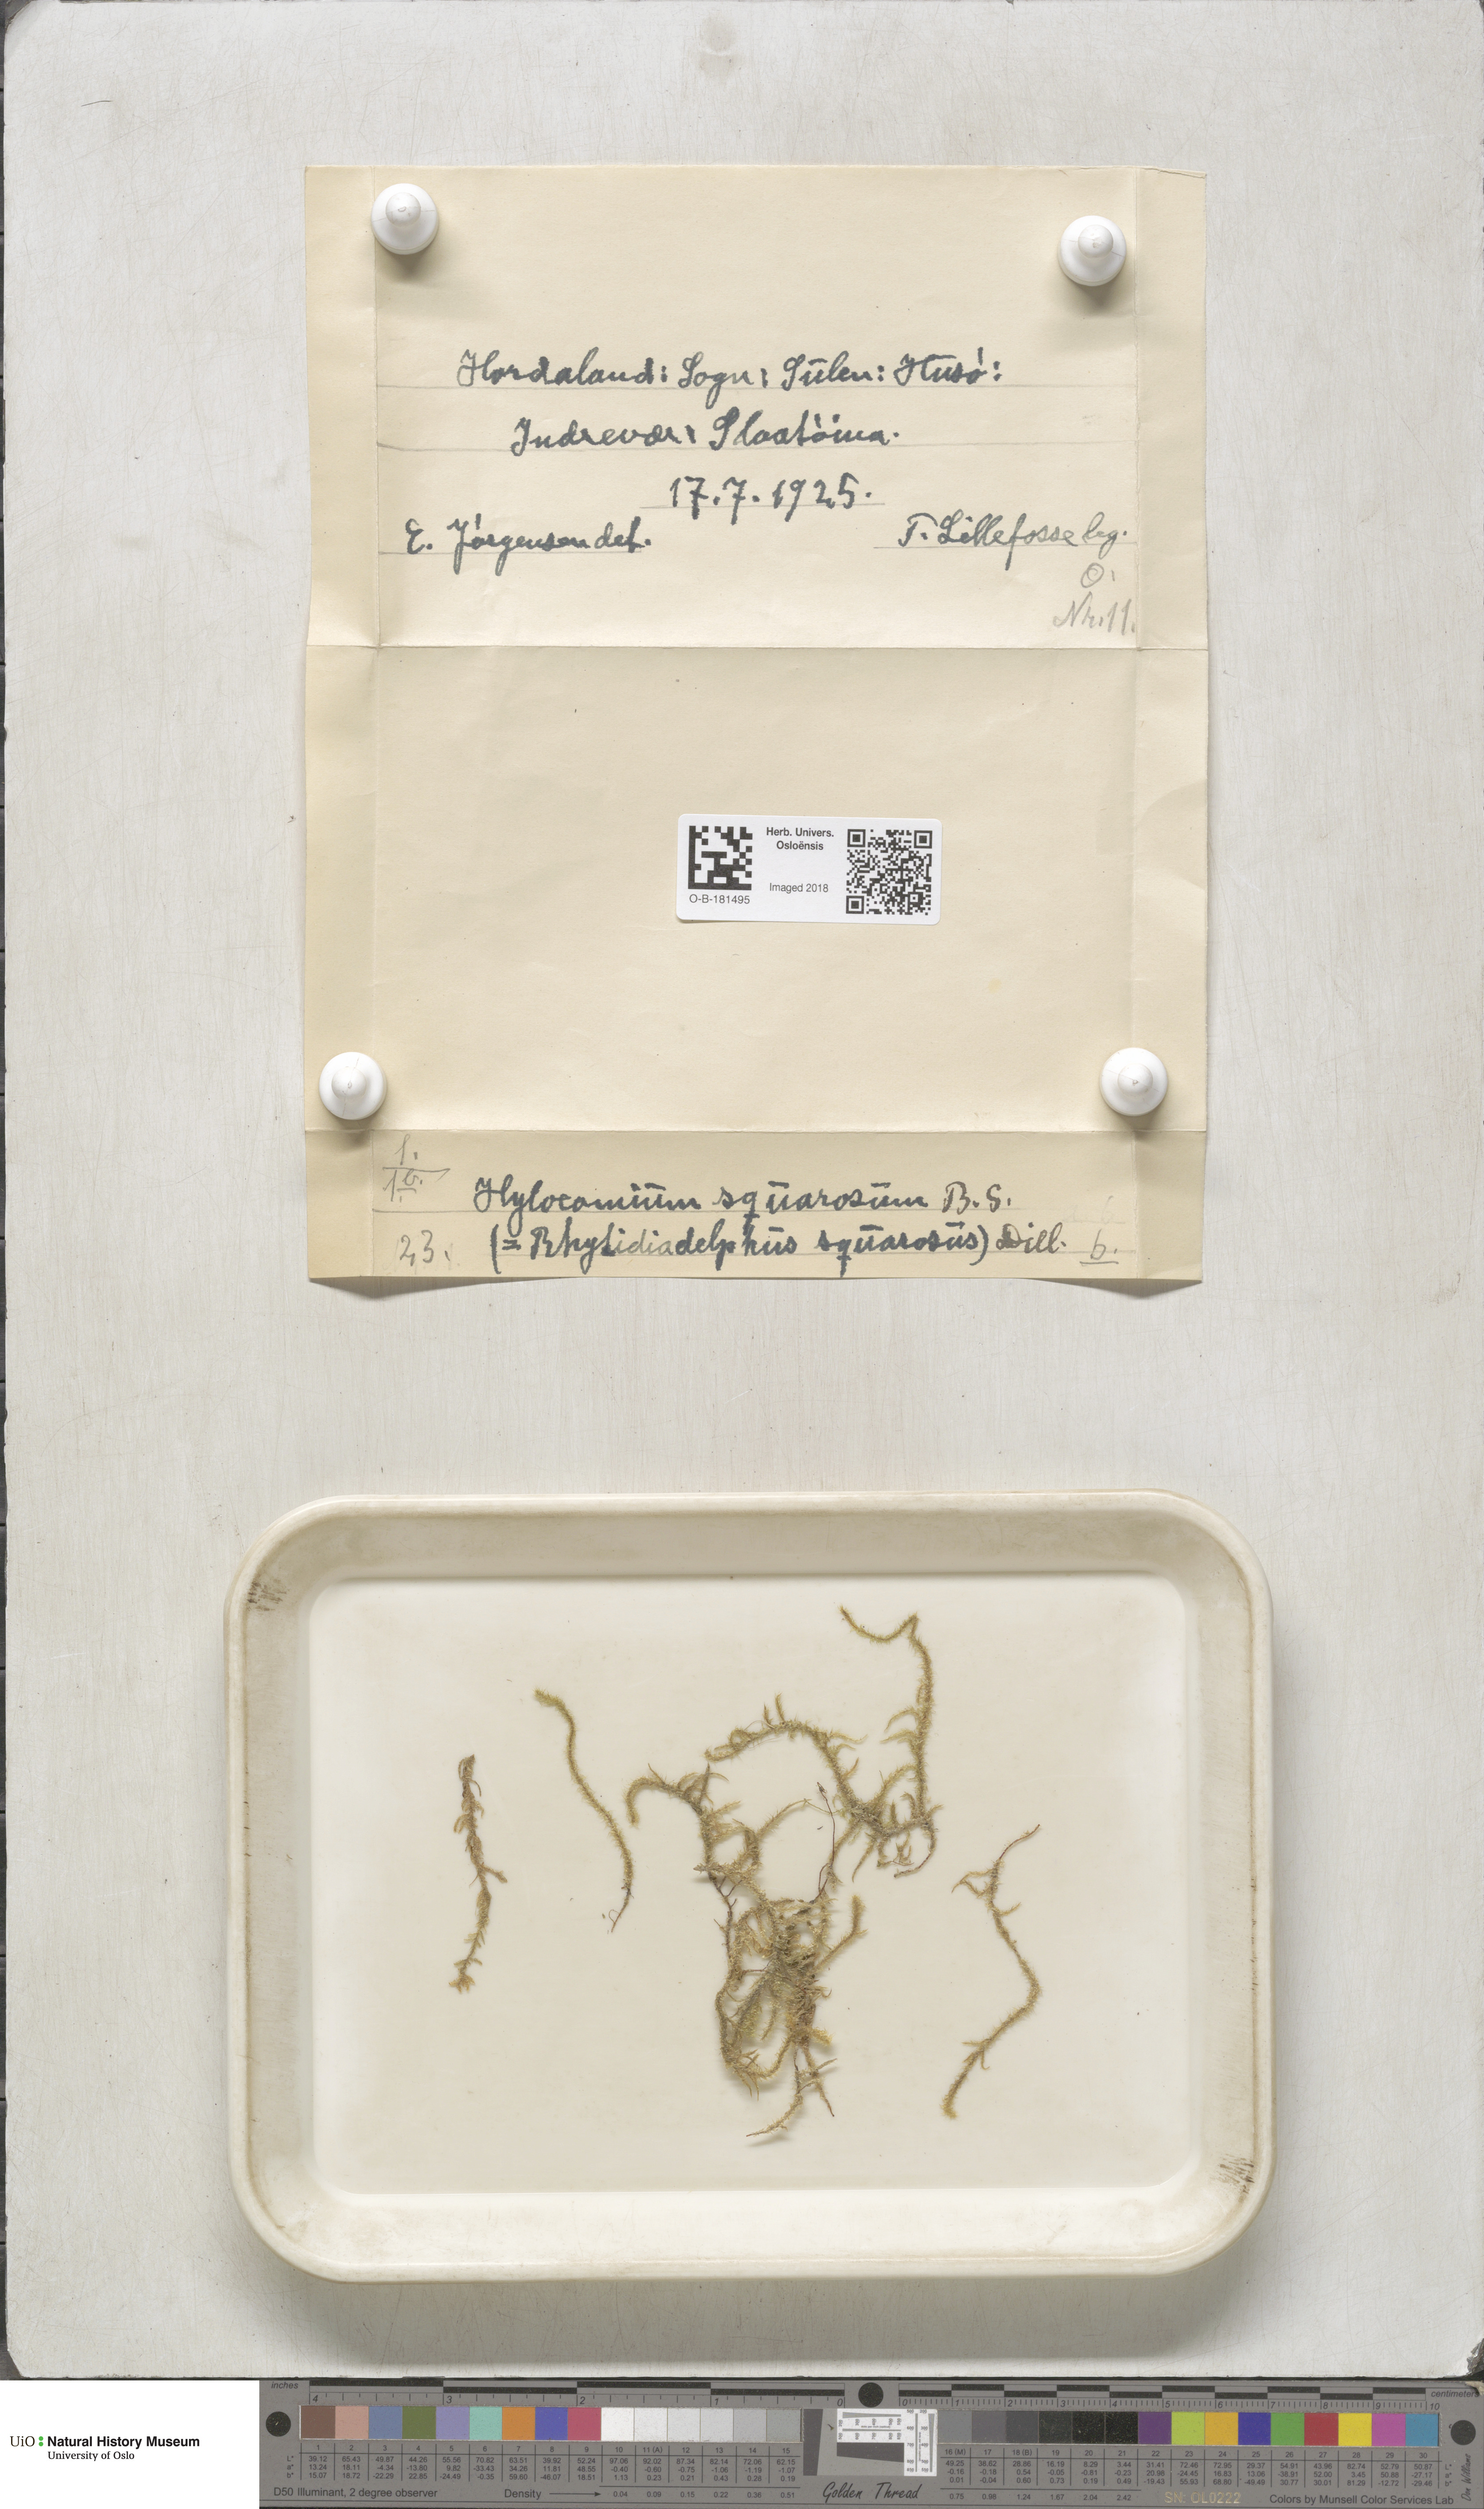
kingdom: Plantae
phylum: Bryophyta
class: Bryopsida
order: Hypnales
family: Hylocomiaceae
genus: Rhytidiadelphus
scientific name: Rhytidiadelphus squarrosus
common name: Springy turf-moss
